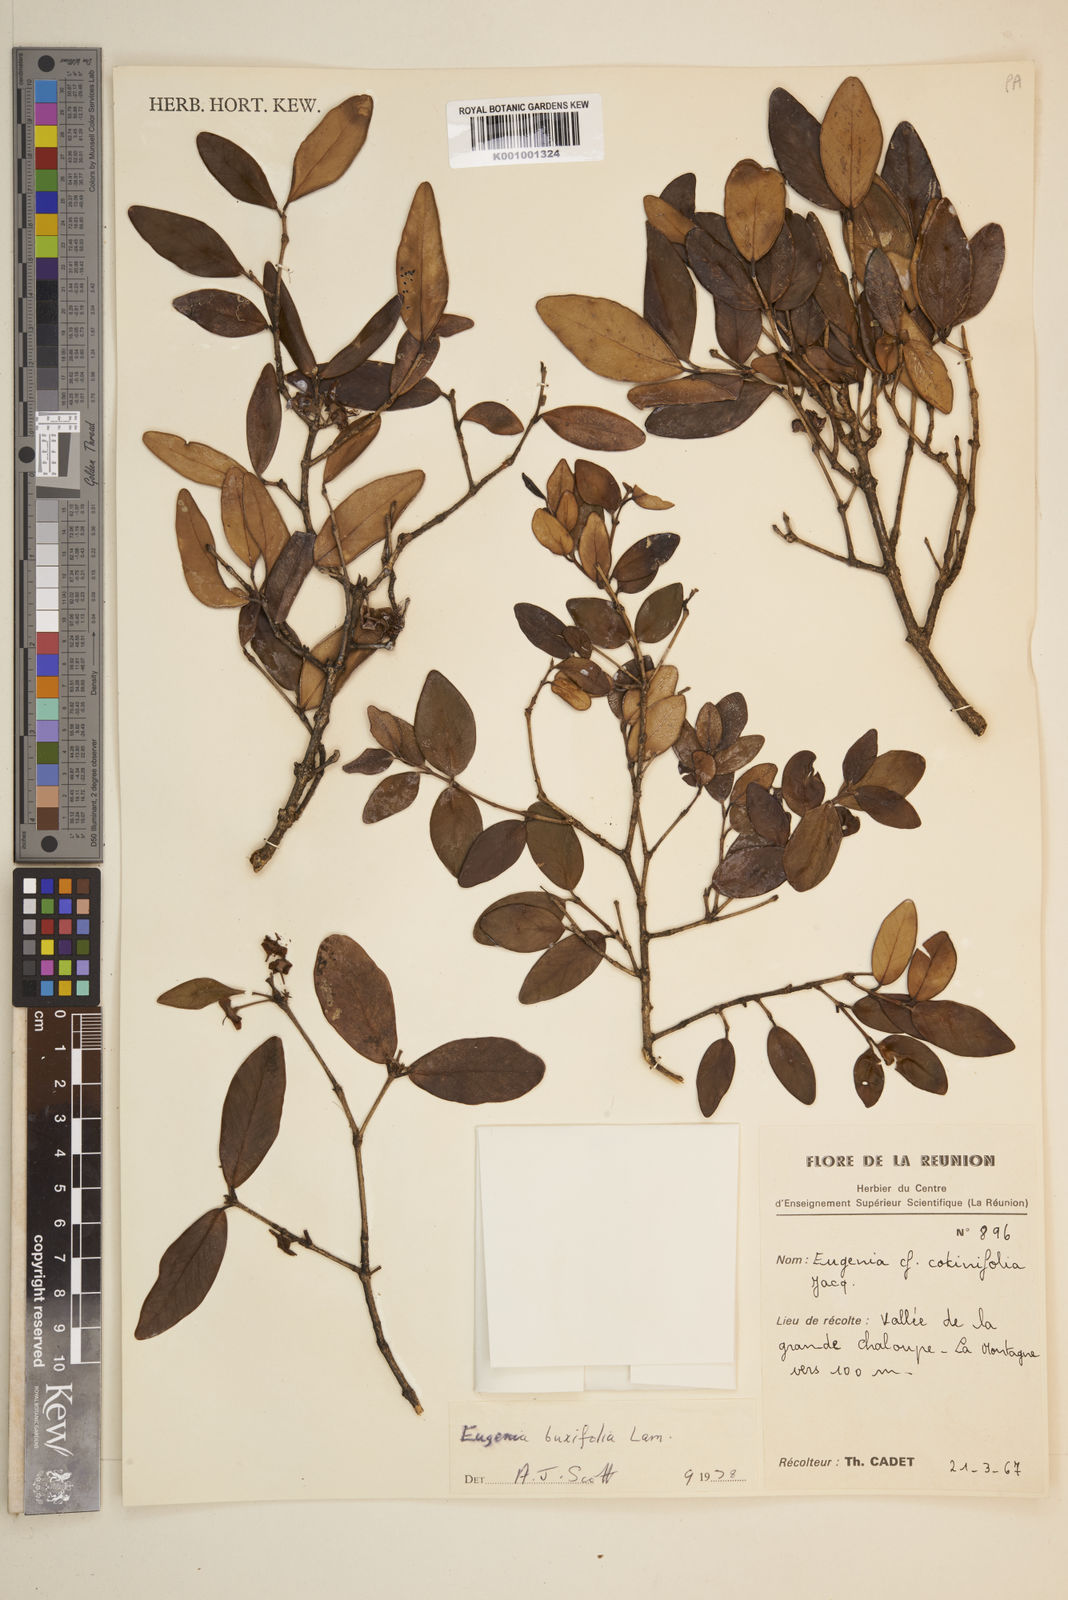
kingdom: Plantae
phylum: Tracheophyta
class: Magnoliopsida
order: Myrtales
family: Myrtaceae
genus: Eugenia
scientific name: Eugenia buxifolia
